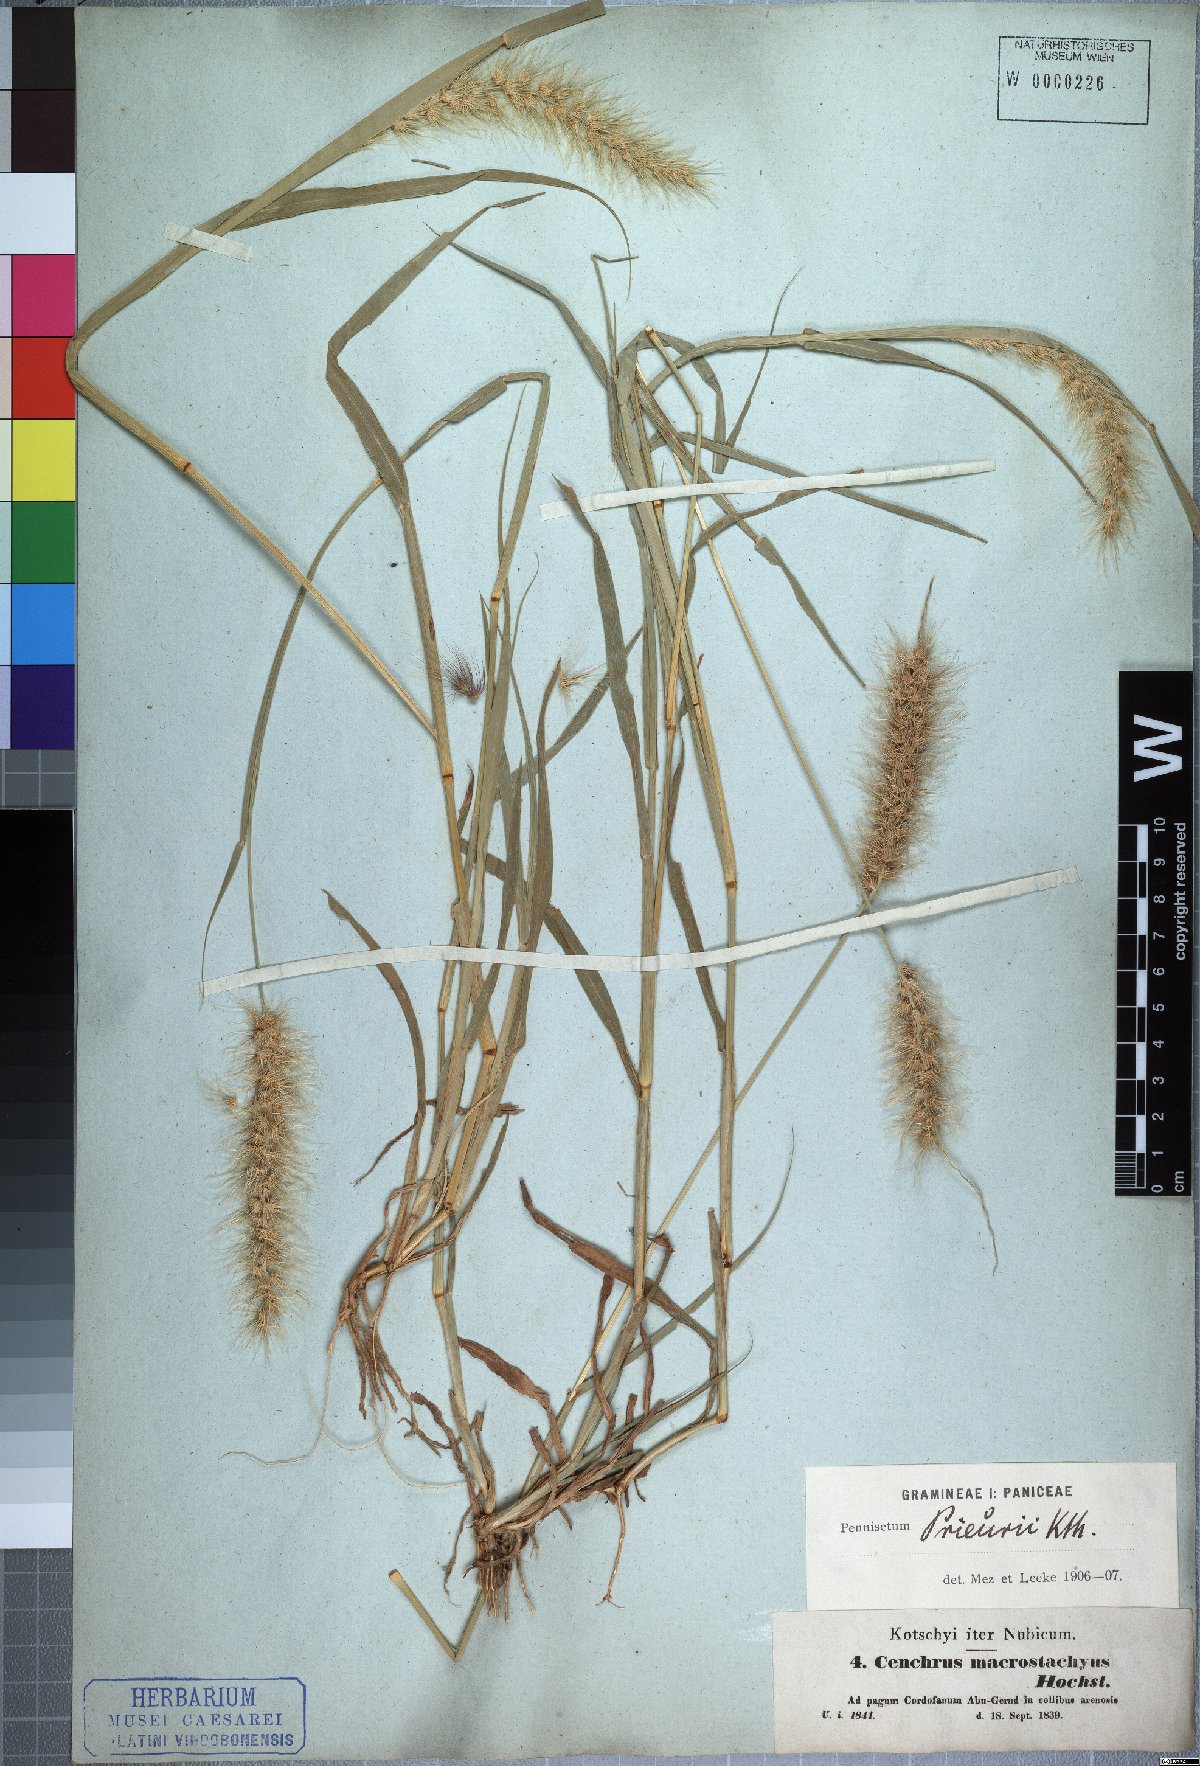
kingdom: Plantae
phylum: Tracheophyta
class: Liliopsida
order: Poales
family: Poaceae
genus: Cenchrus
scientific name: Cenchrus prieurii
